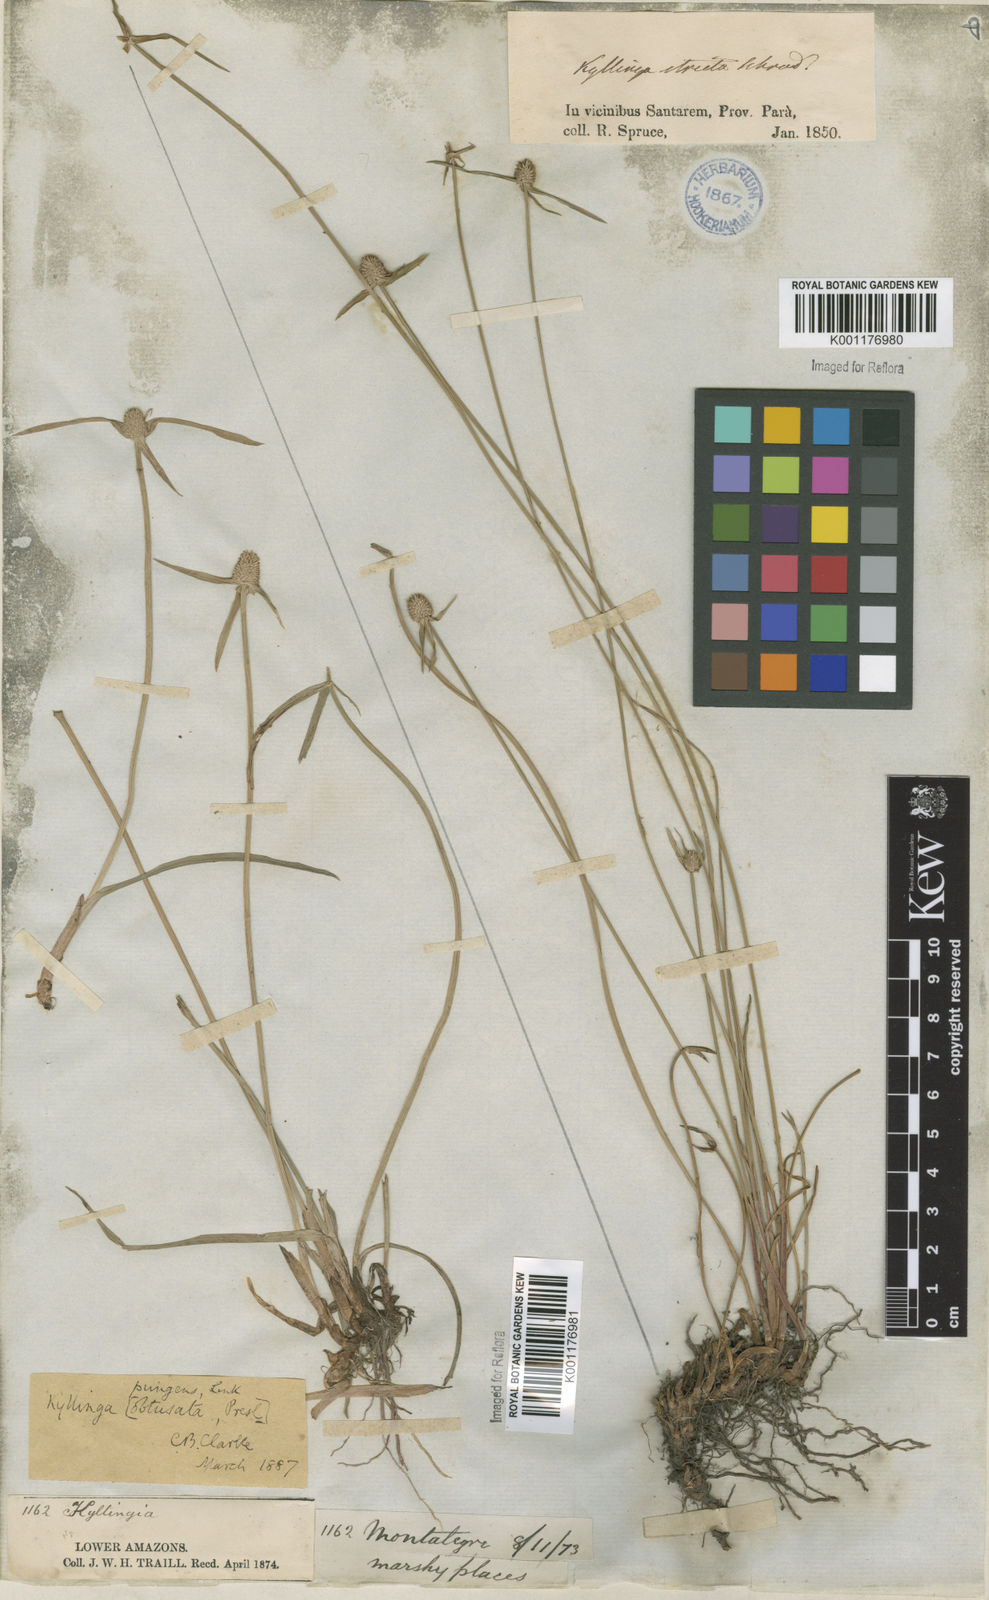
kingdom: Plantae
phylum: Tracheophyta
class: Liliopsida
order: Poales
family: Cyperaceae
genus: Cyperus
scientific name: Cyperus obtusatus
